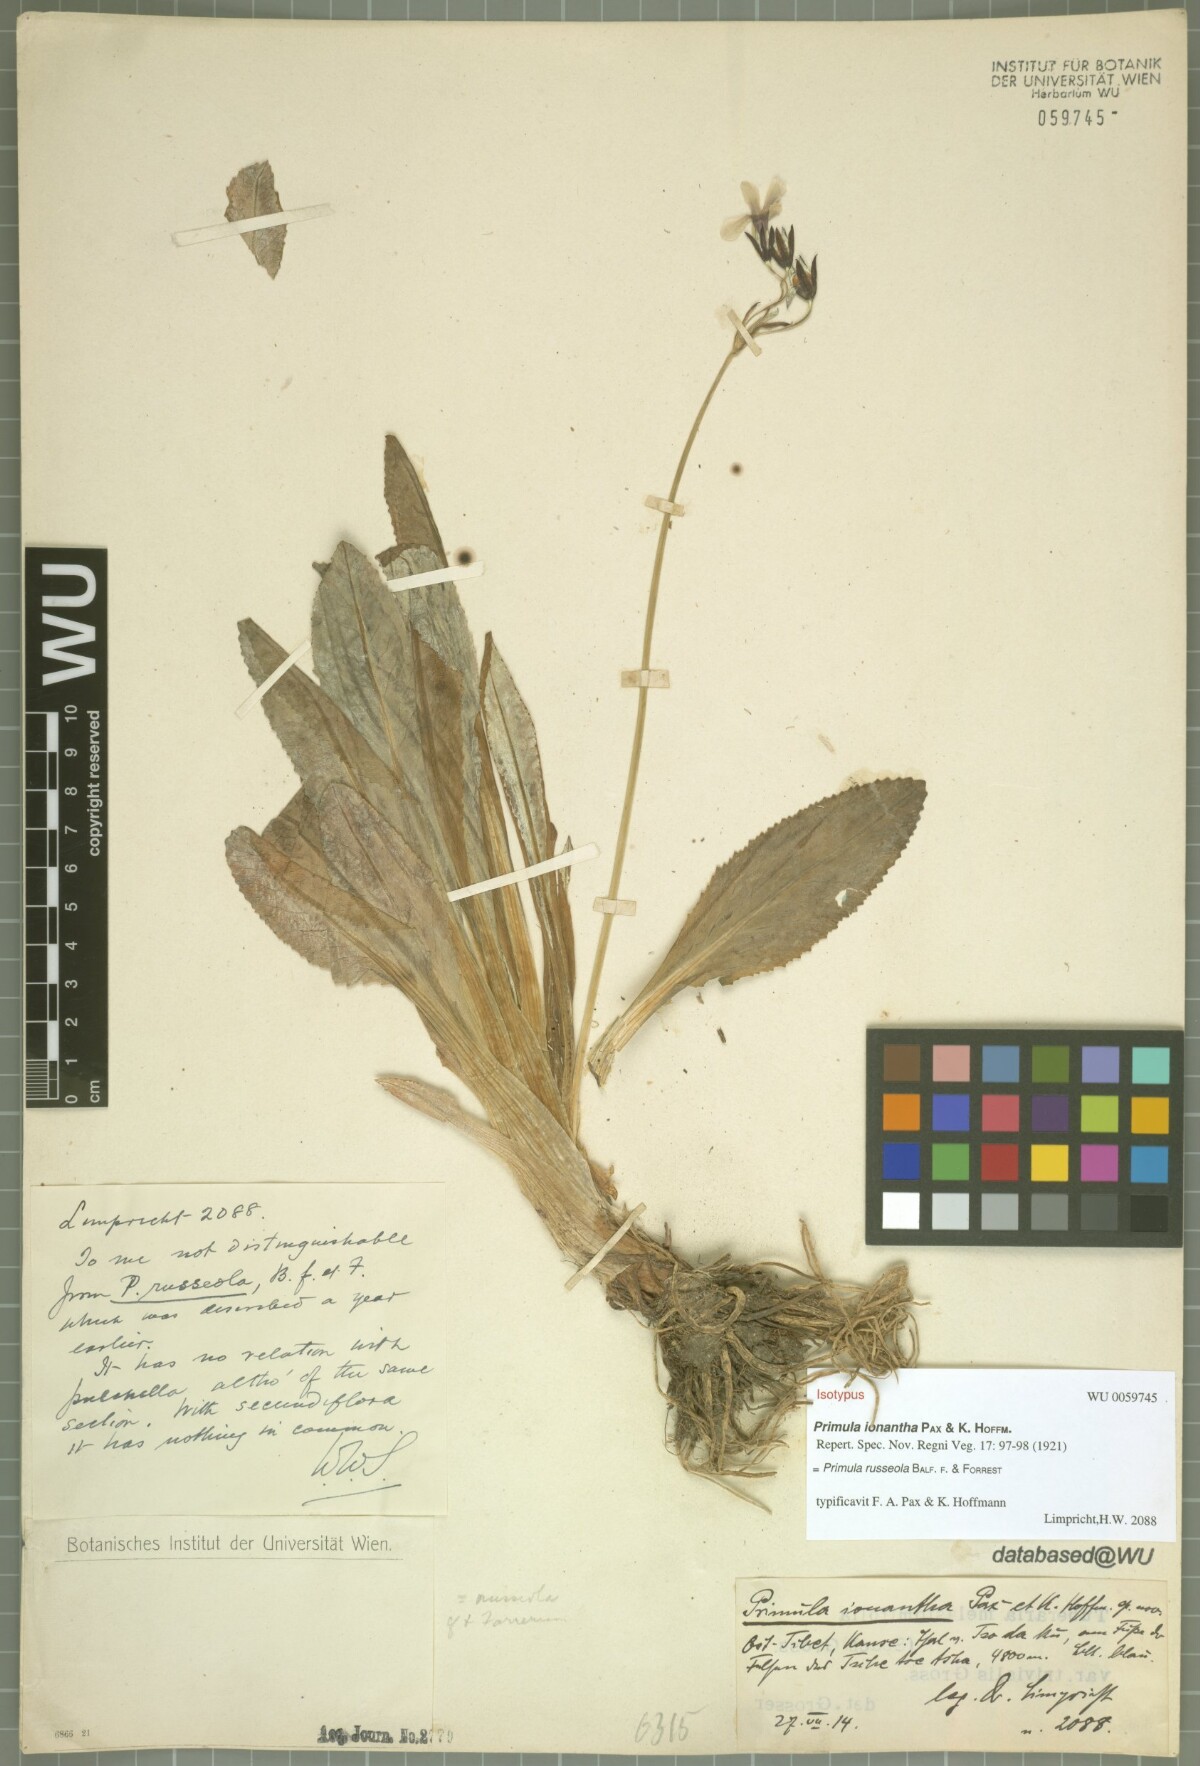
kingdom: Plantae
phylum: Tracheophyta
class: Magnoliopsida
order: Ericales
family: Primulaceae
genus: Primula
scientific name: Primula russeola
